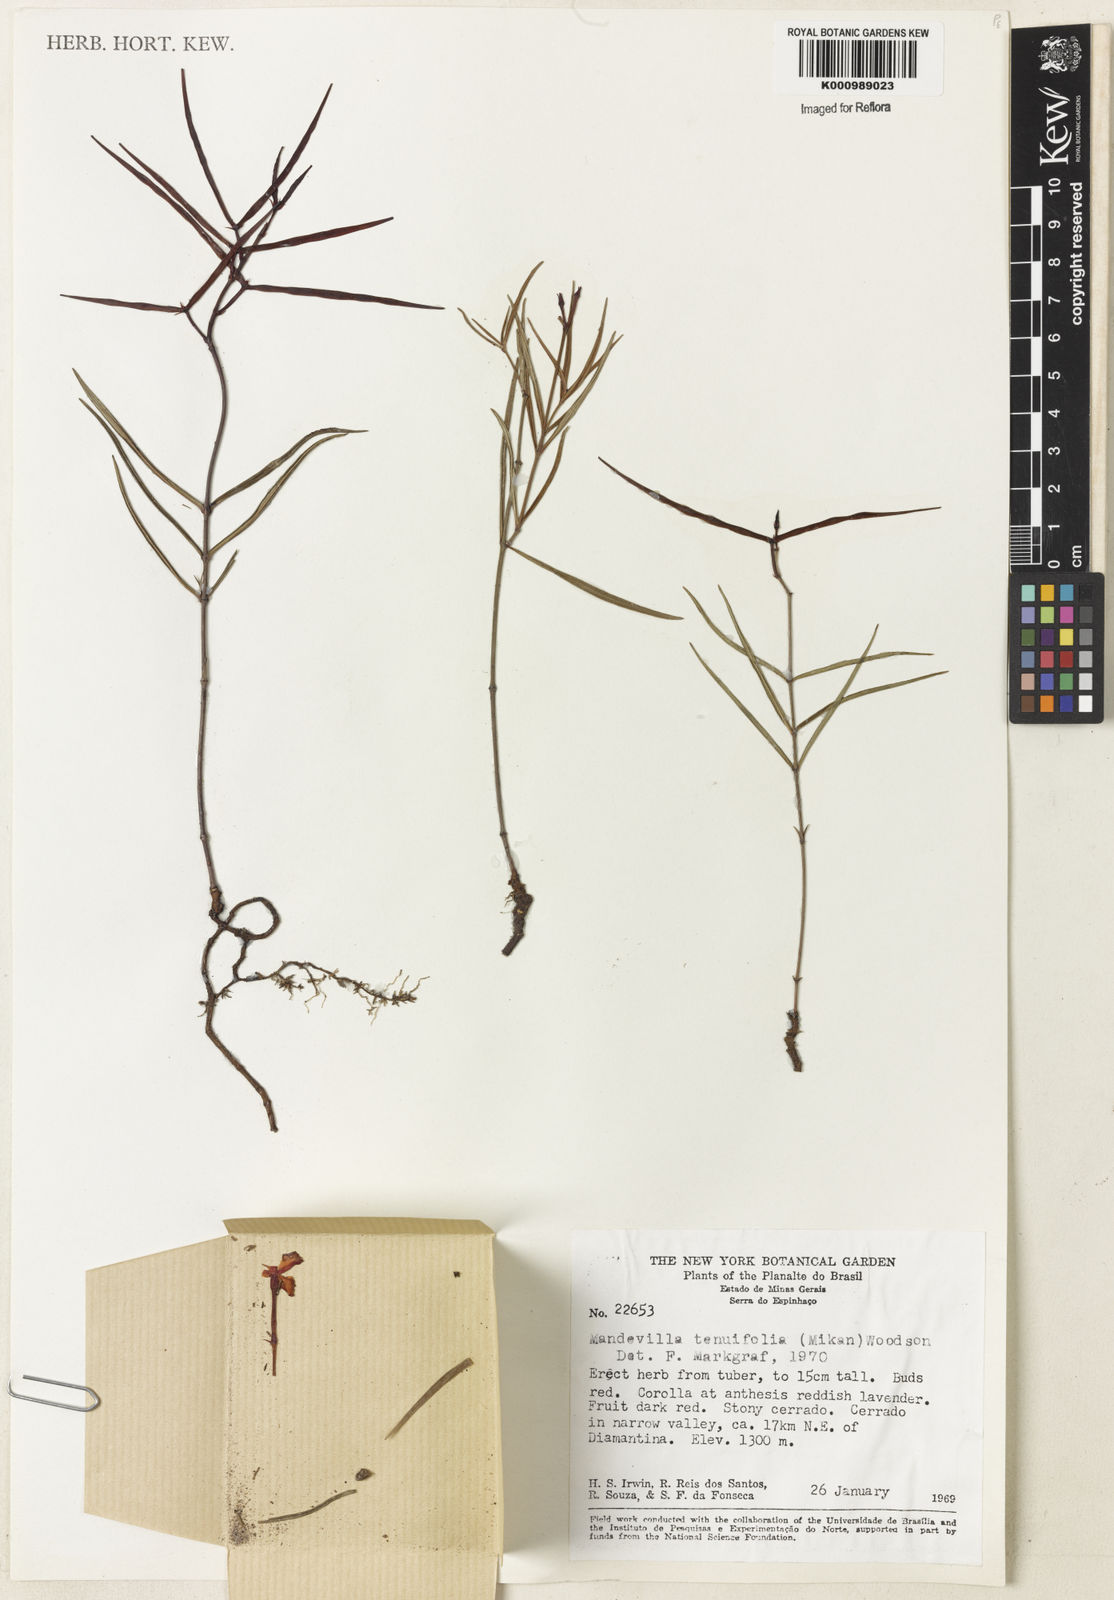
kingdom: Plantae
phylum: Tracheophyta
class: Magnoliopsida
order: Gentianales
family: Apocynaceae
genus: Mandevilla
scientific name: Mandevilla tenuifolia
